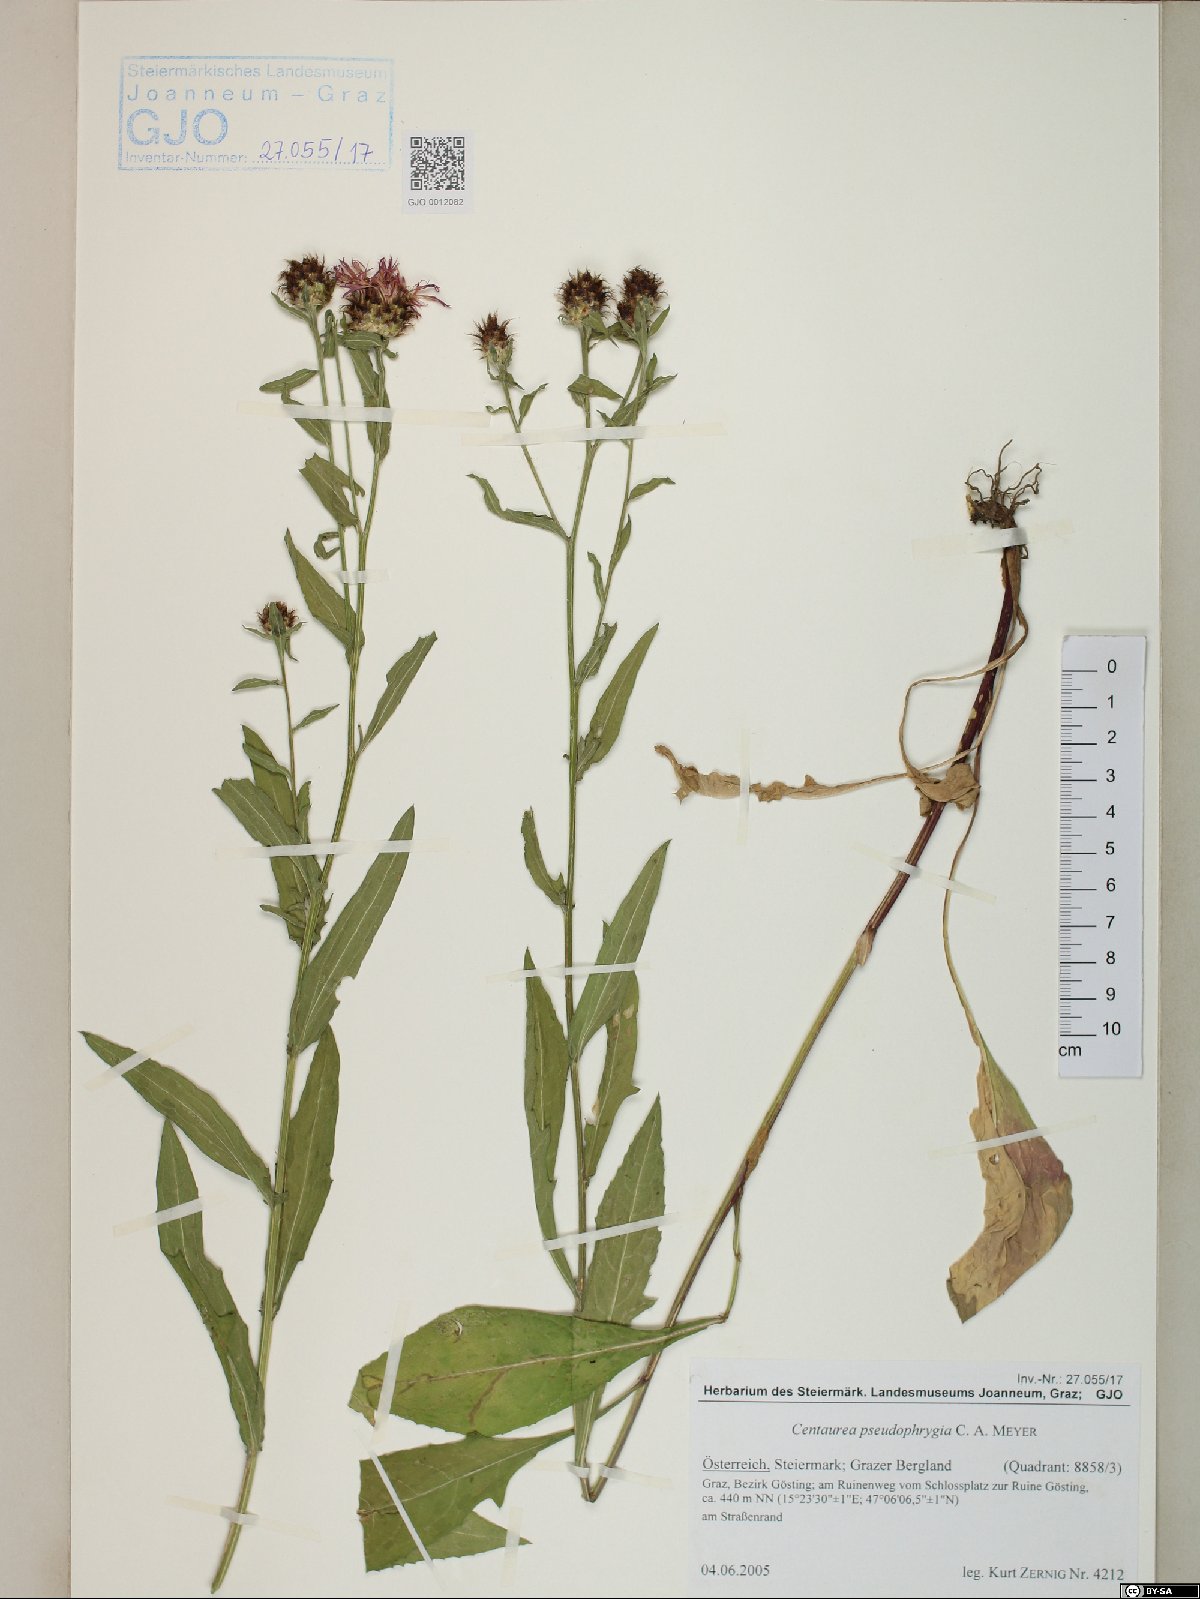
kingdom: Plantae
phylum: Tracheophyta
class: Magnoliopsida
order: Asterales
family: Asteraceae
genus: Centaurea
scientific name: Centaurea
